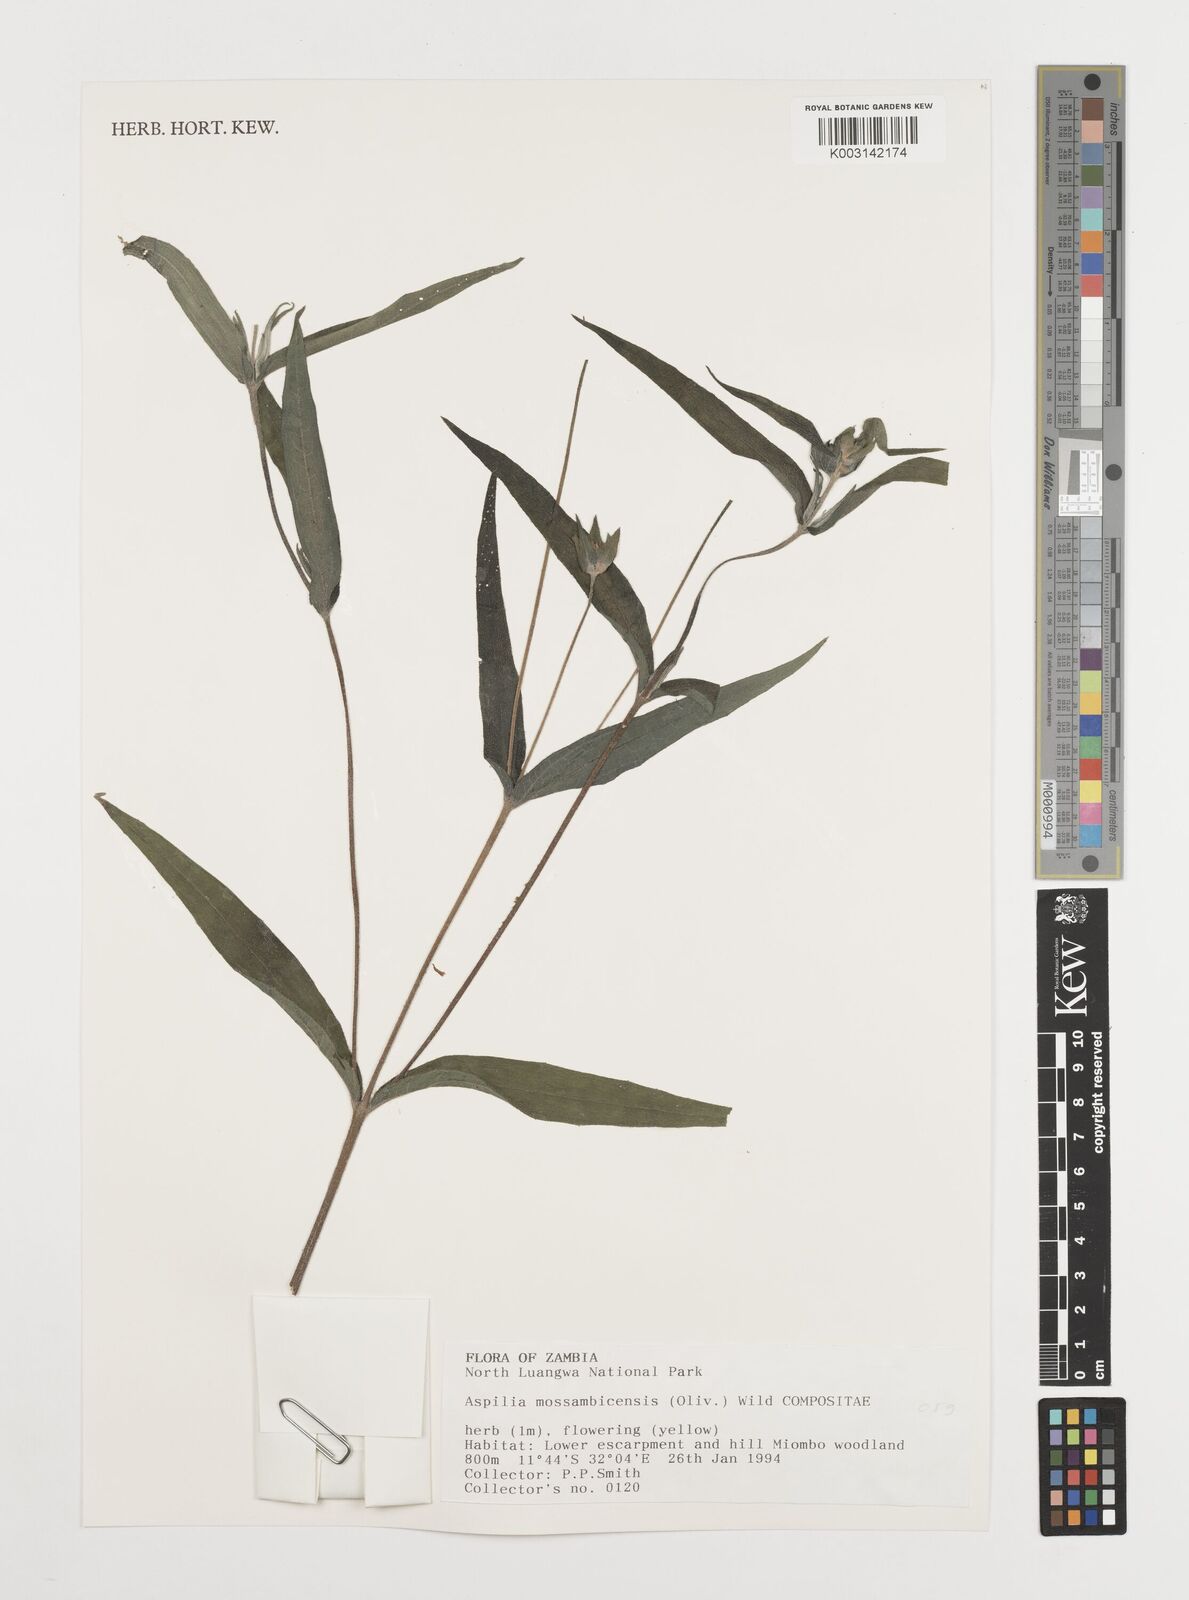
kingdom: Plantae
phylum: Tracheophyta
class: Magnoliopsida
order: Asterales
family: Asteraceae
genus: Aspilia
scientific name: Aspilia mossambicensis
